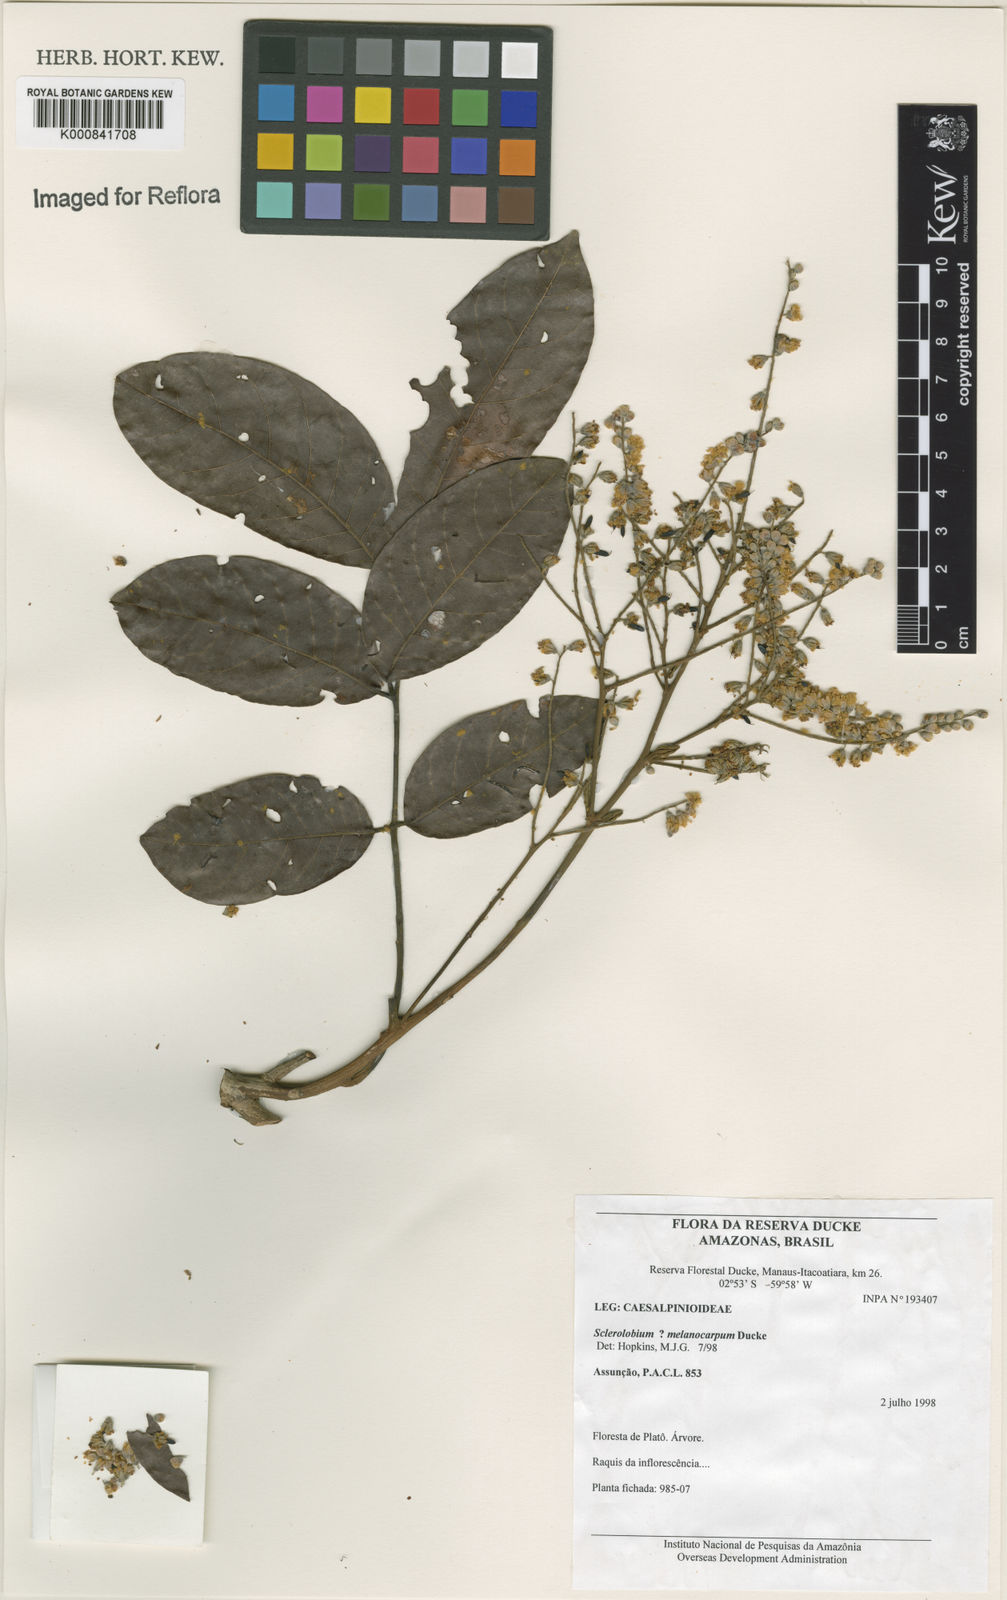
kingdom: Plantae
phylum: Tracheophyta
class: Magnoliopsida
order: Fabales
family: Fabaceae
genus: Tachigali
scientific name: Tachigali melanocarpa
